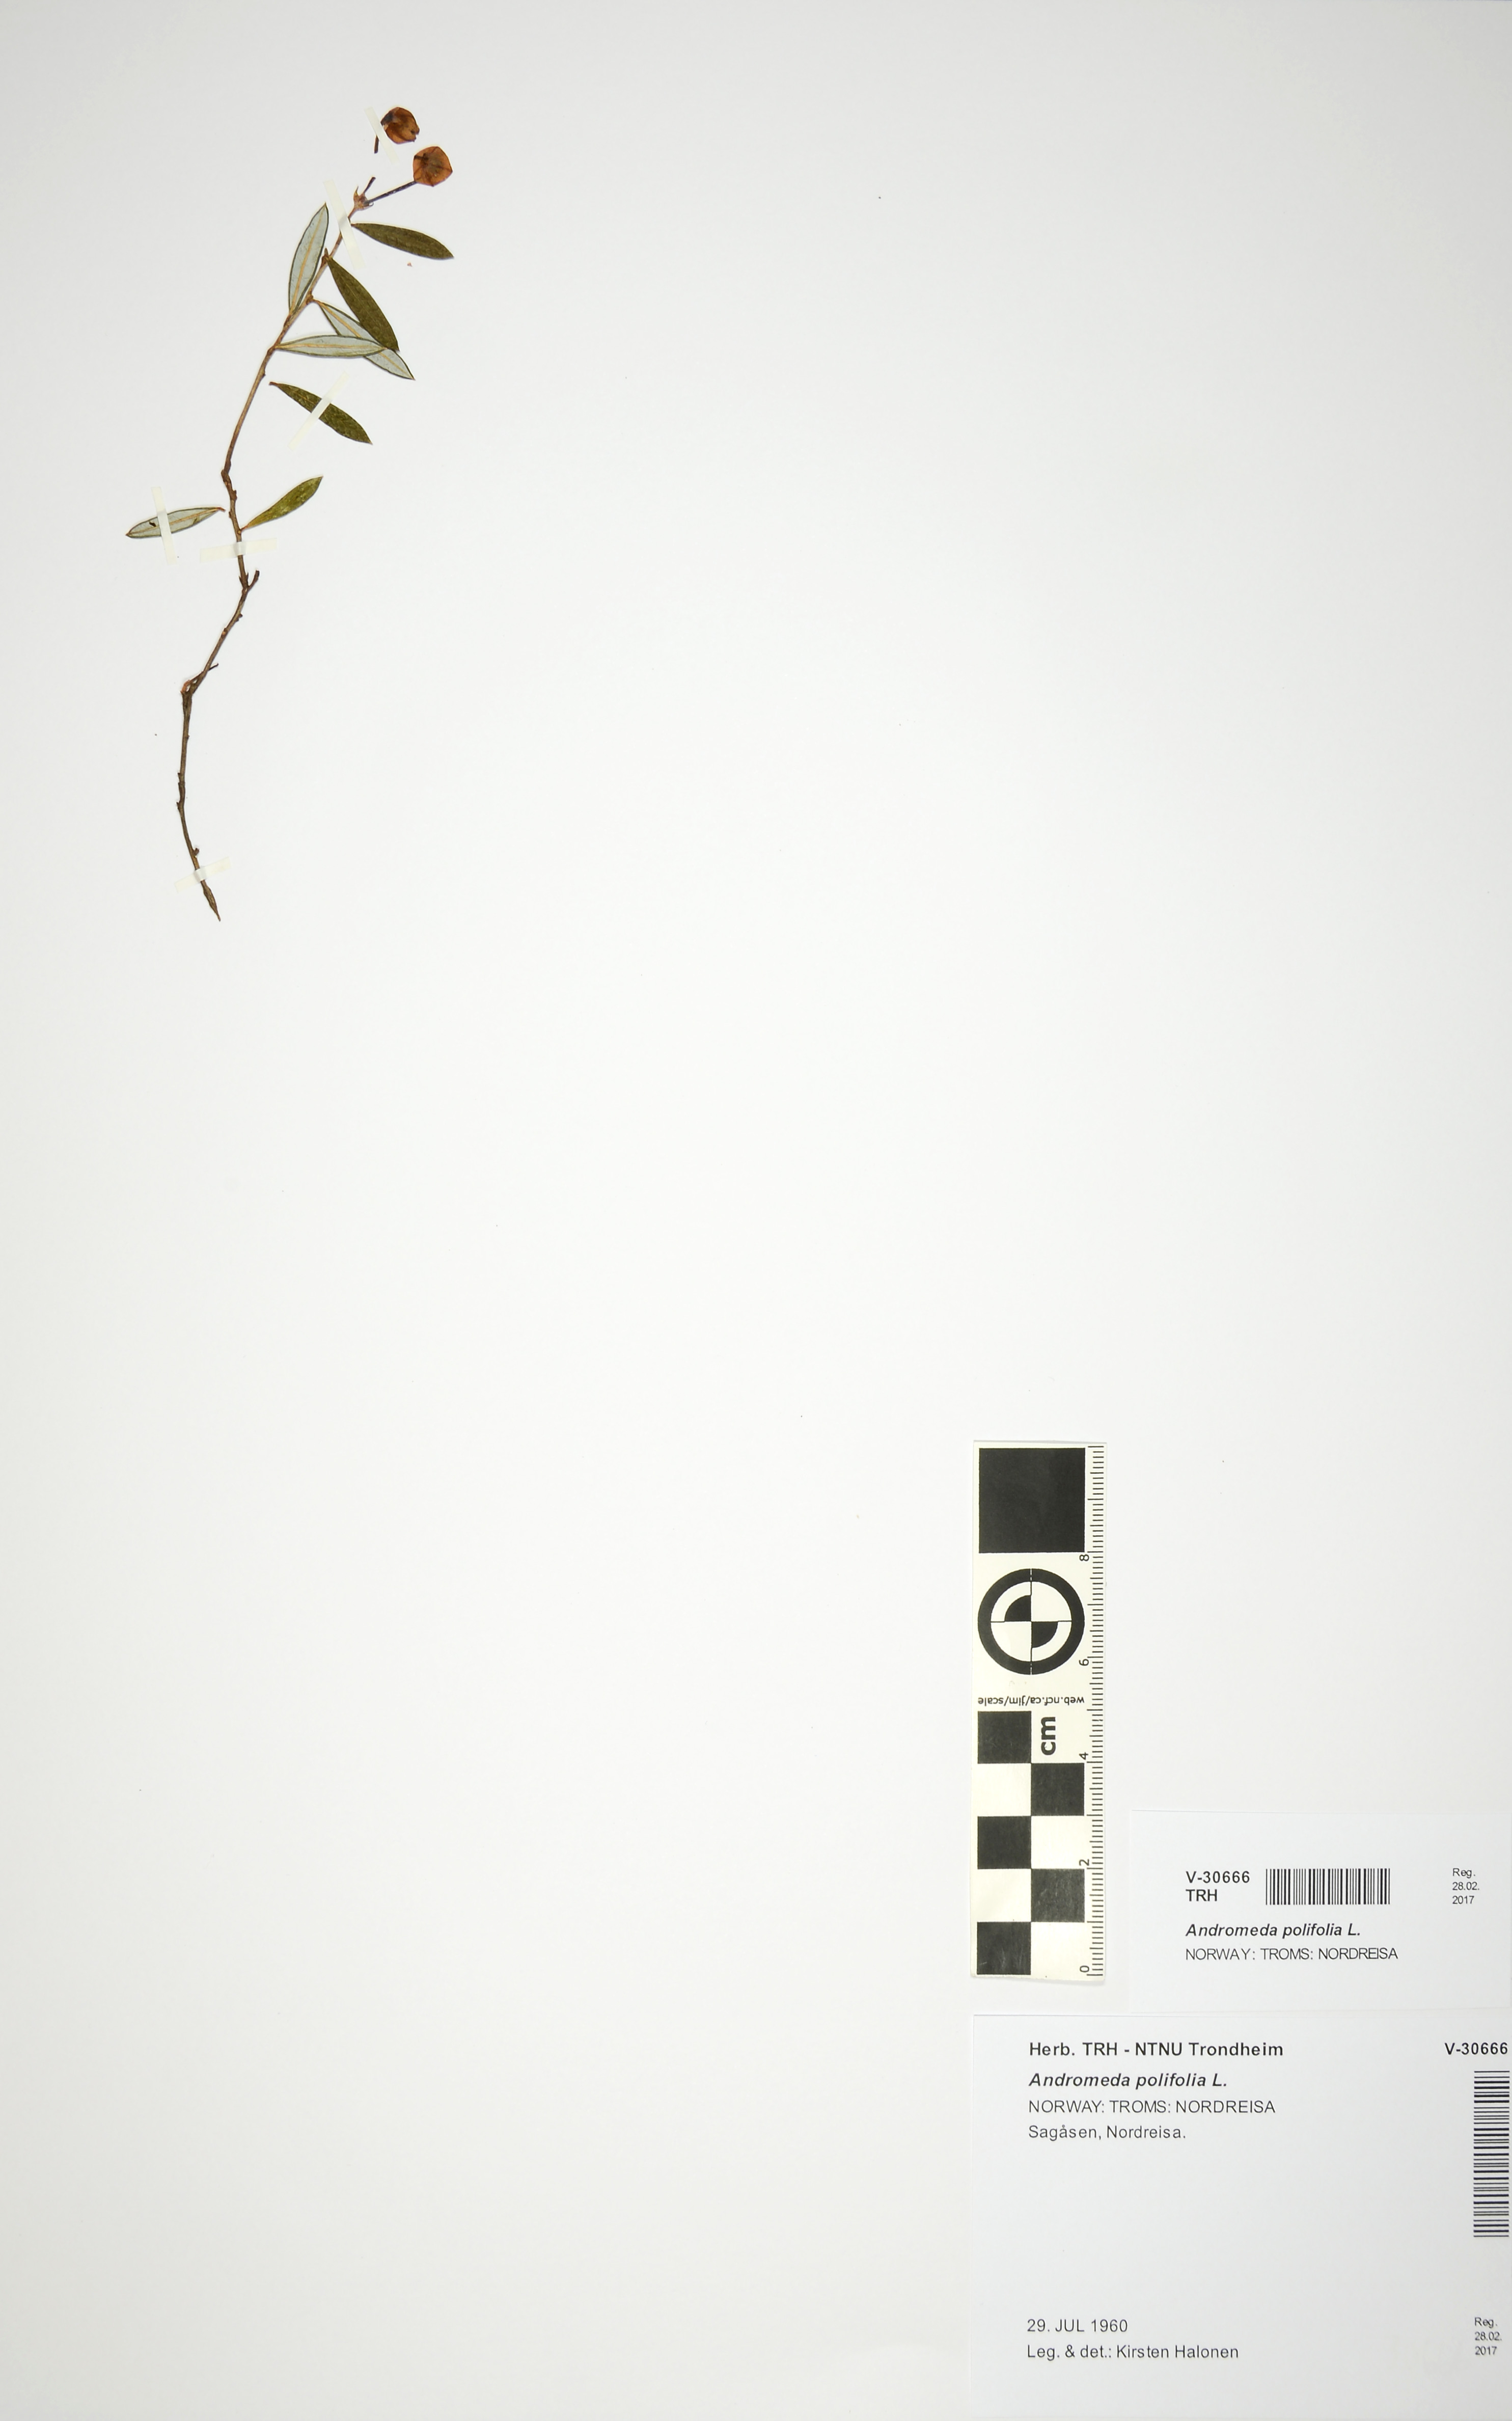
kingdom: Plantae
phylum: Tracheophyta
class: Magnoliopsida
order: Ericales
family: Ericaceae
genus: Andromeda
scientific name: Andromeda polifolia
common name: Bog-rosemary
